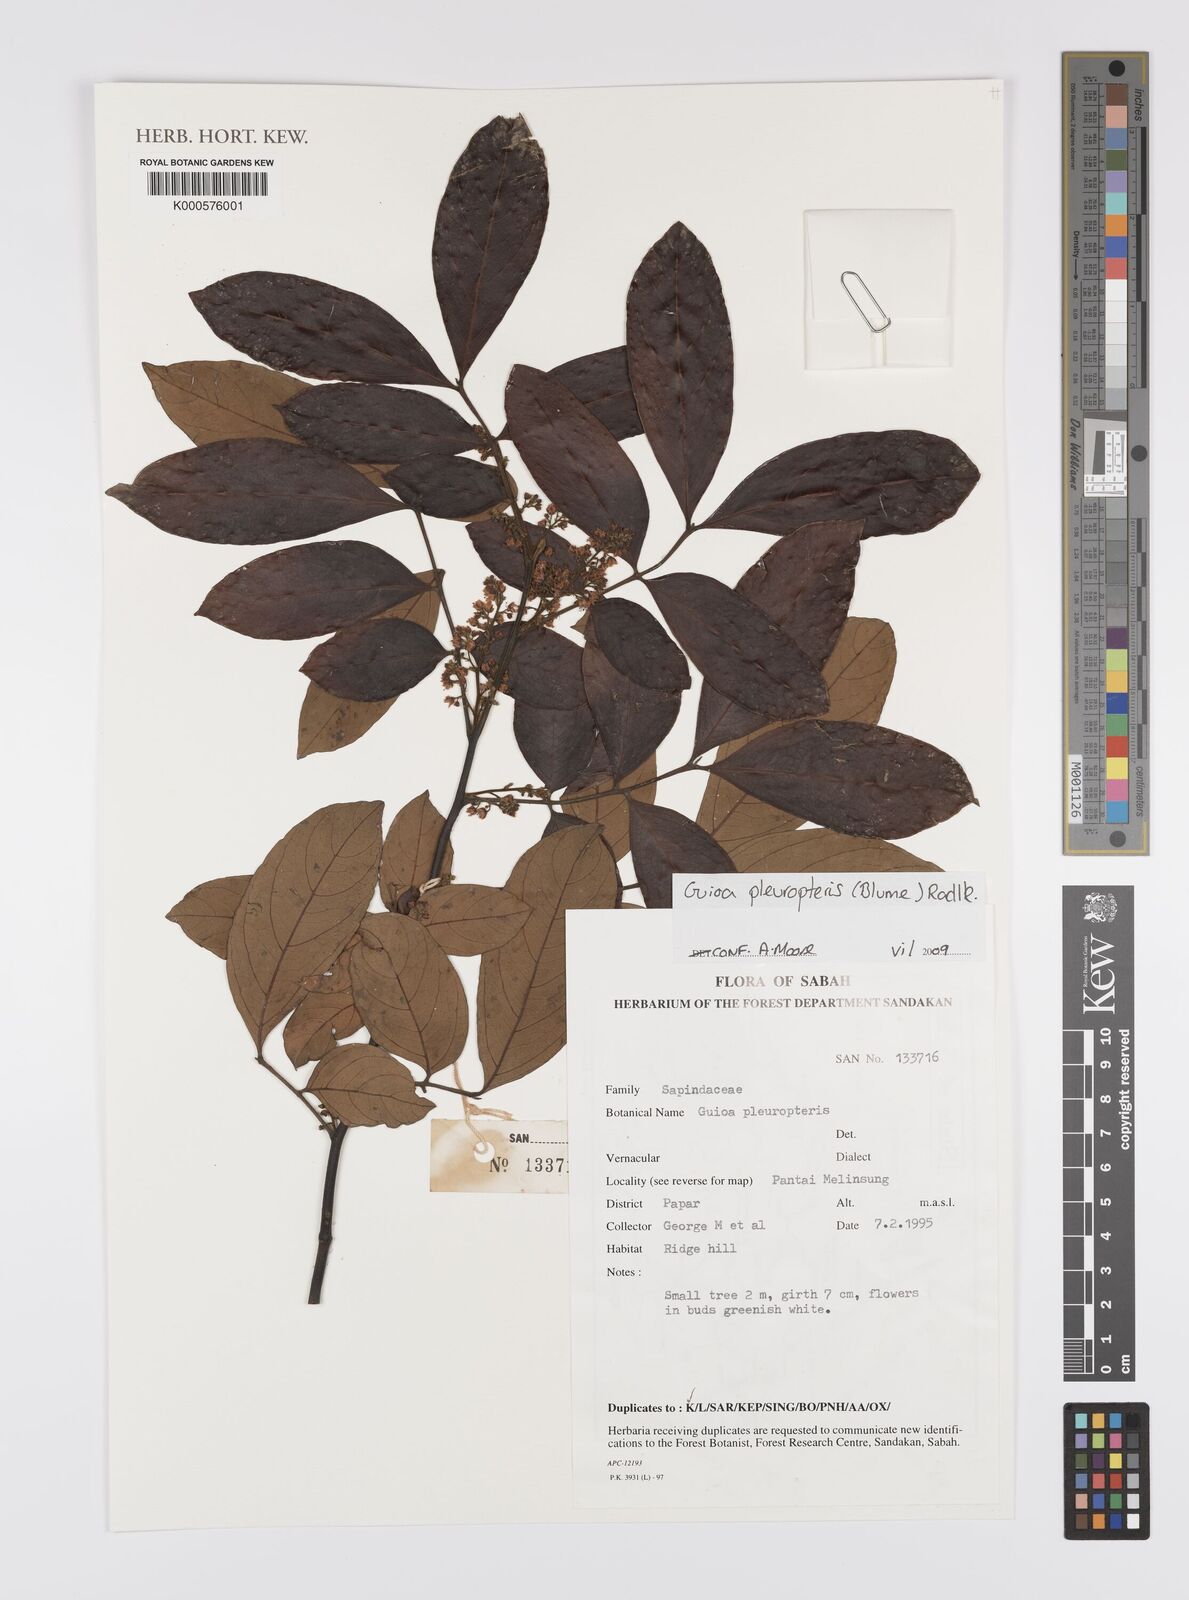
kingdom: Plantae
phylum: Tracheophyta
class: Magnoliopsida
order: Sapindales
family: Sapindaceae
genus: Guioa
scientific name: Guioa pleuropteris
